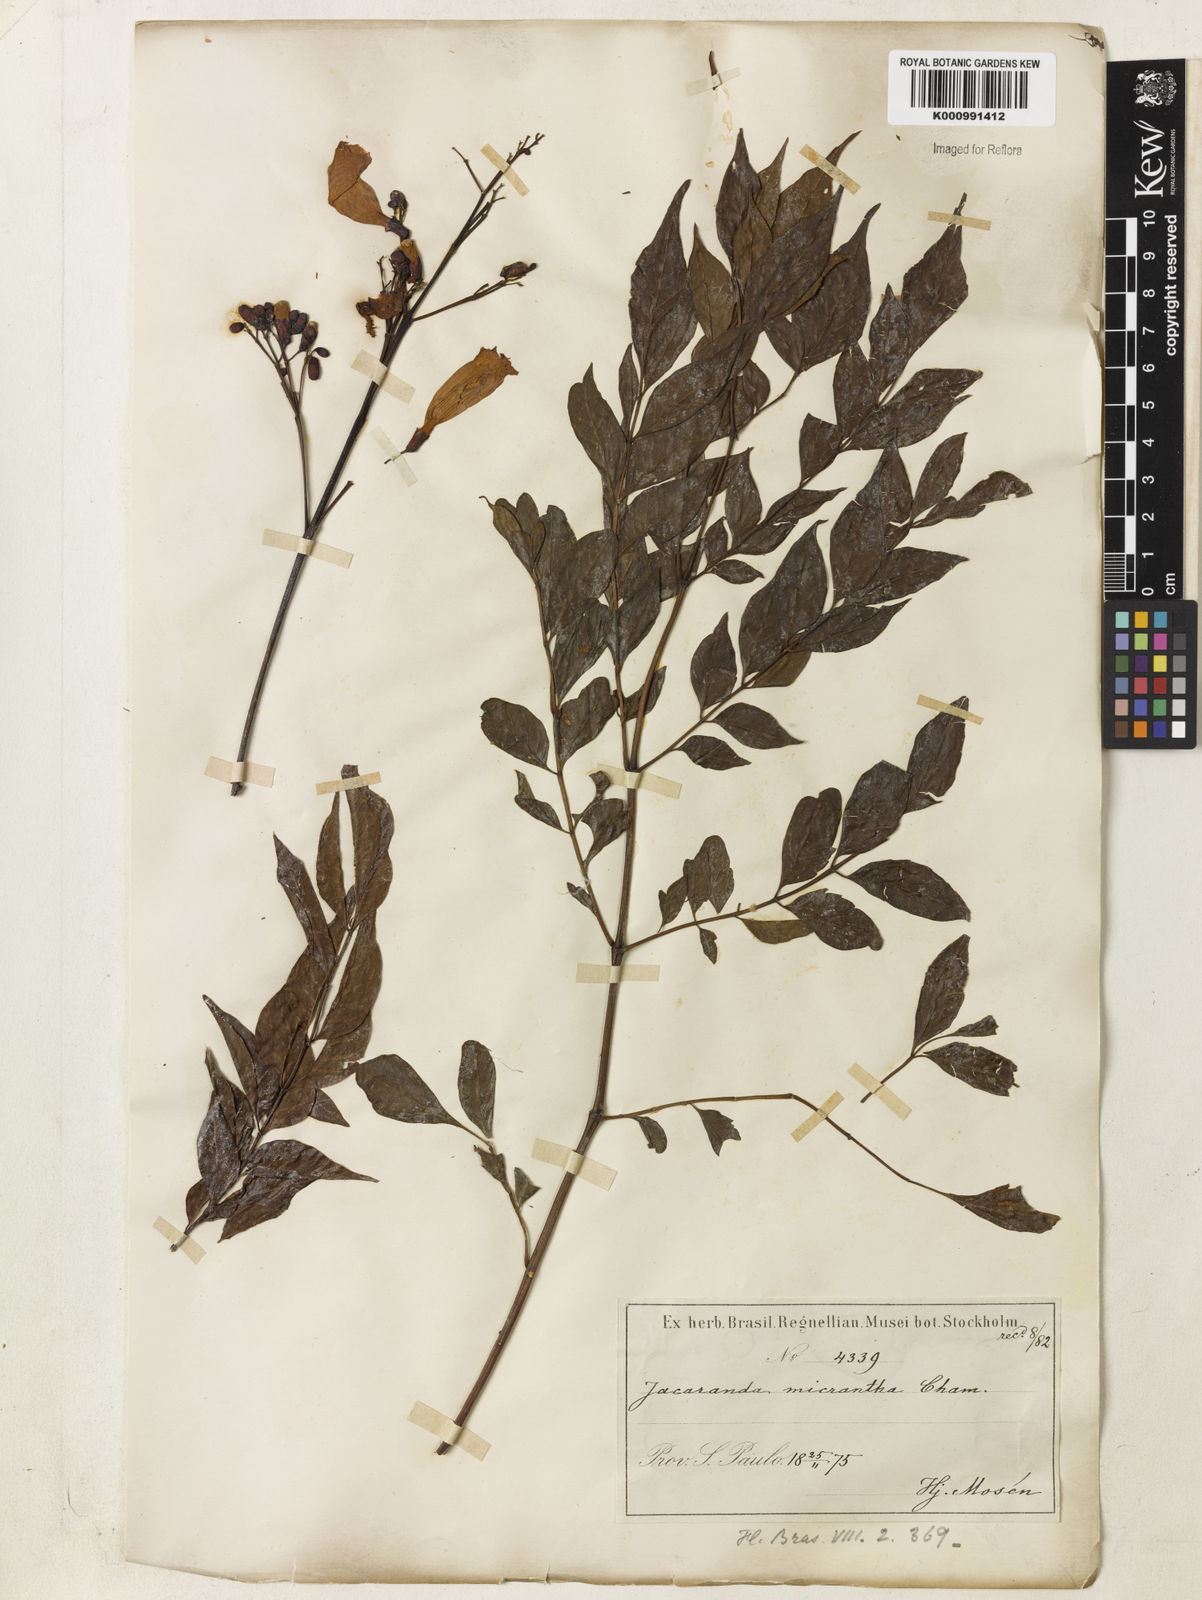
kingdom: Plantae
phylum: Tracheophyta
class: Magnoliopsida
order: Lamiales
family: Bignoniaceae
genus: Jacaranda
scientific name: Jacaranda micrantha
